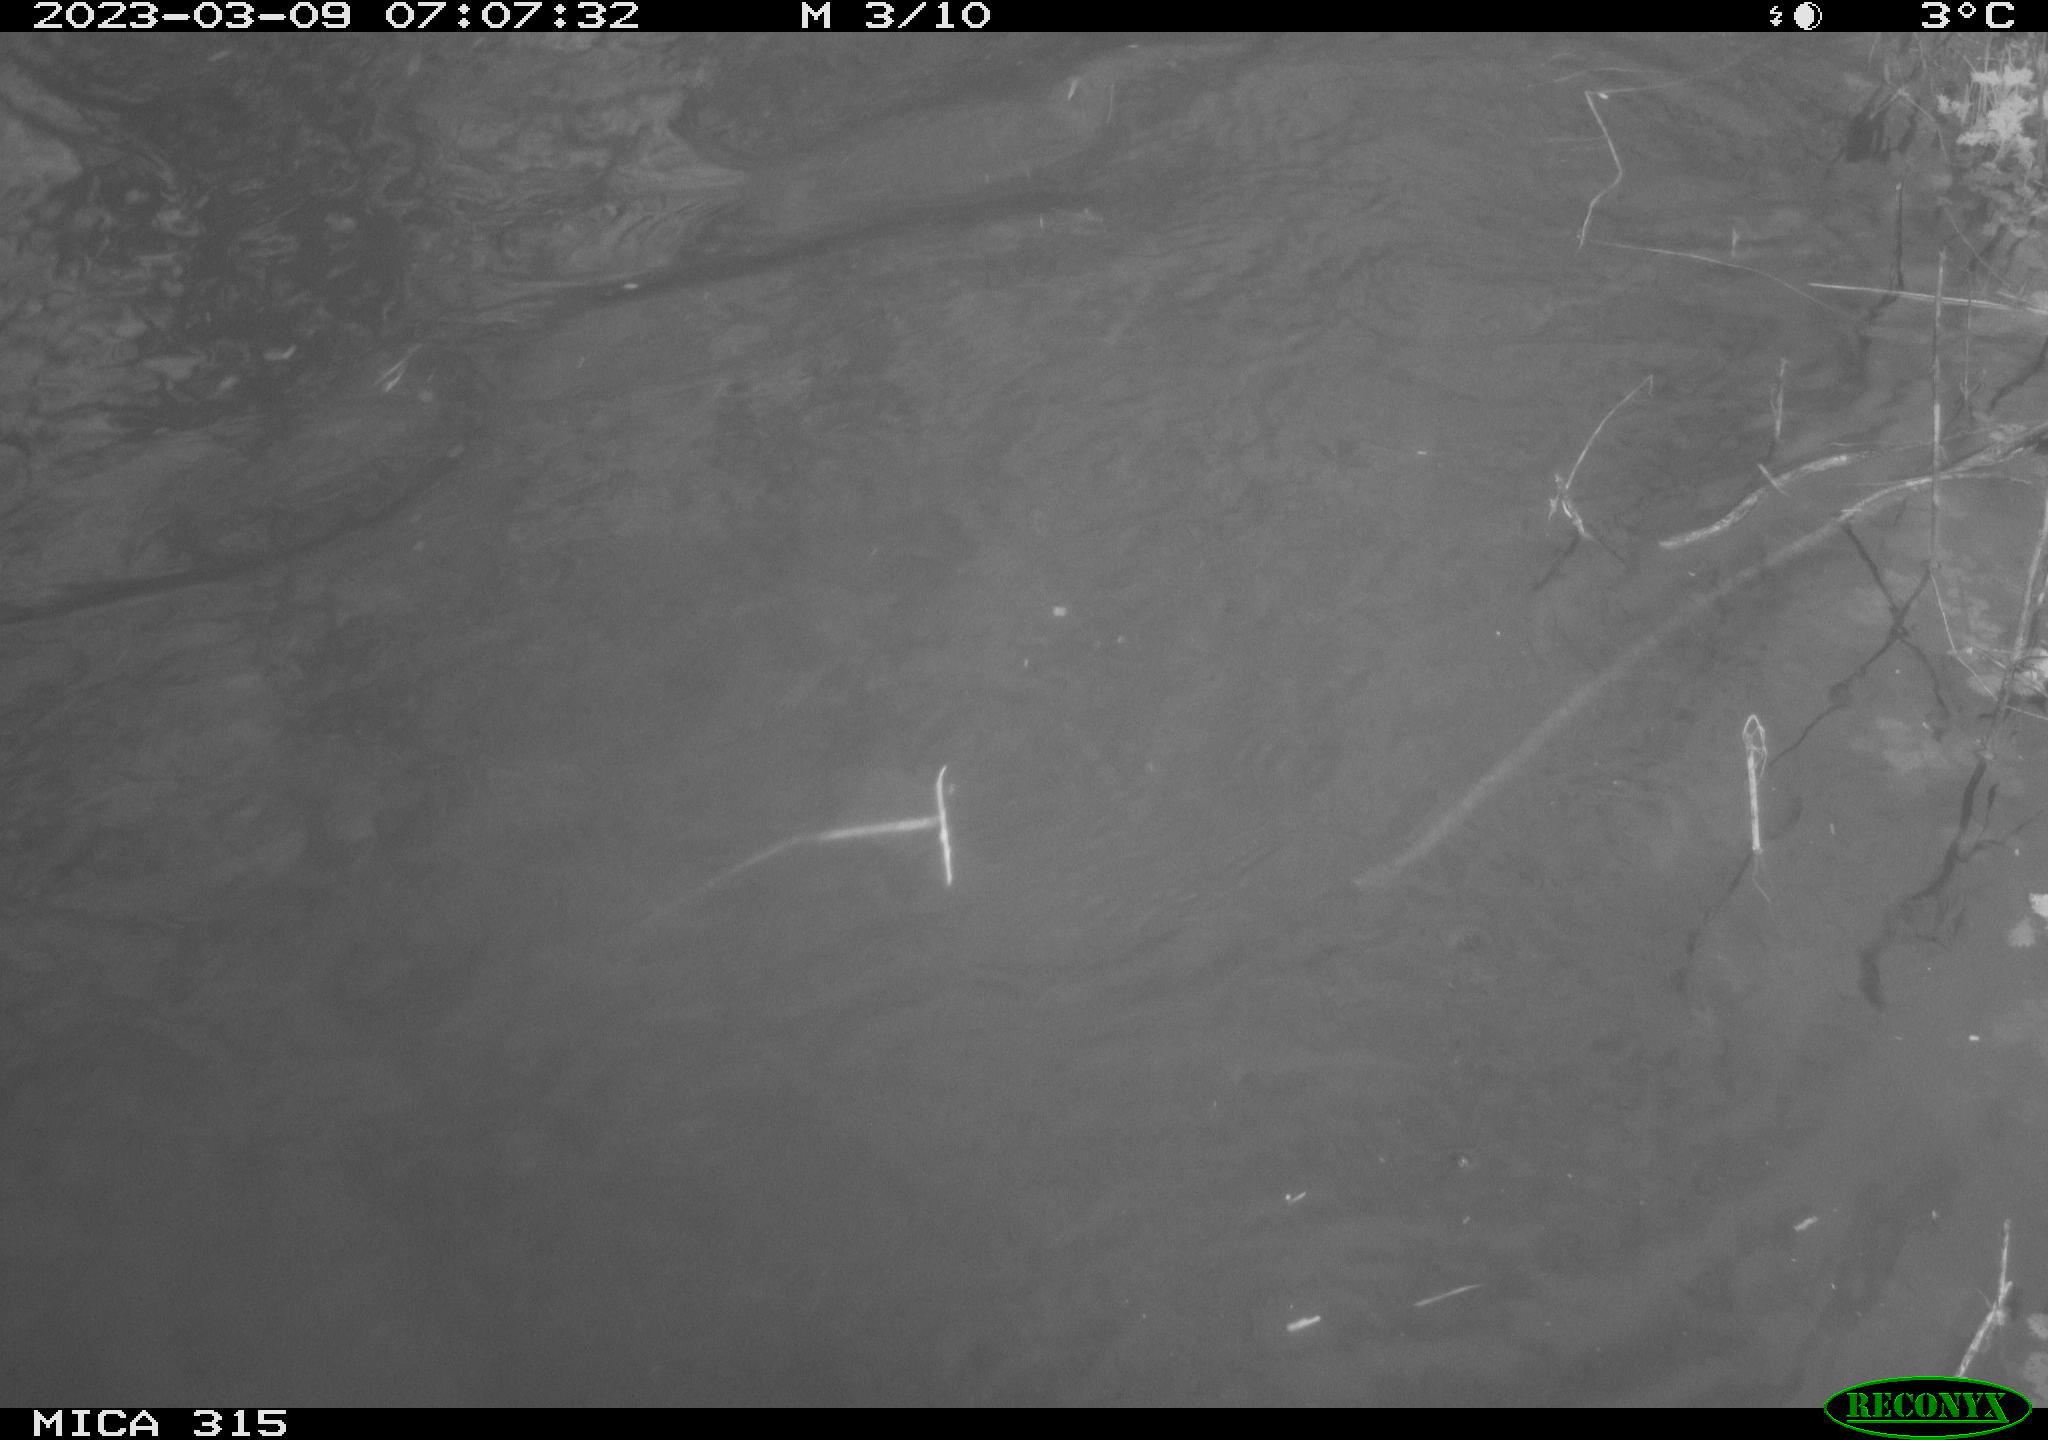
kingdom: Animalia
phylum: Chordata
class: Aves
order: Anseriformes
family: Anatidae
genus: Anas
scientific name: Anas
